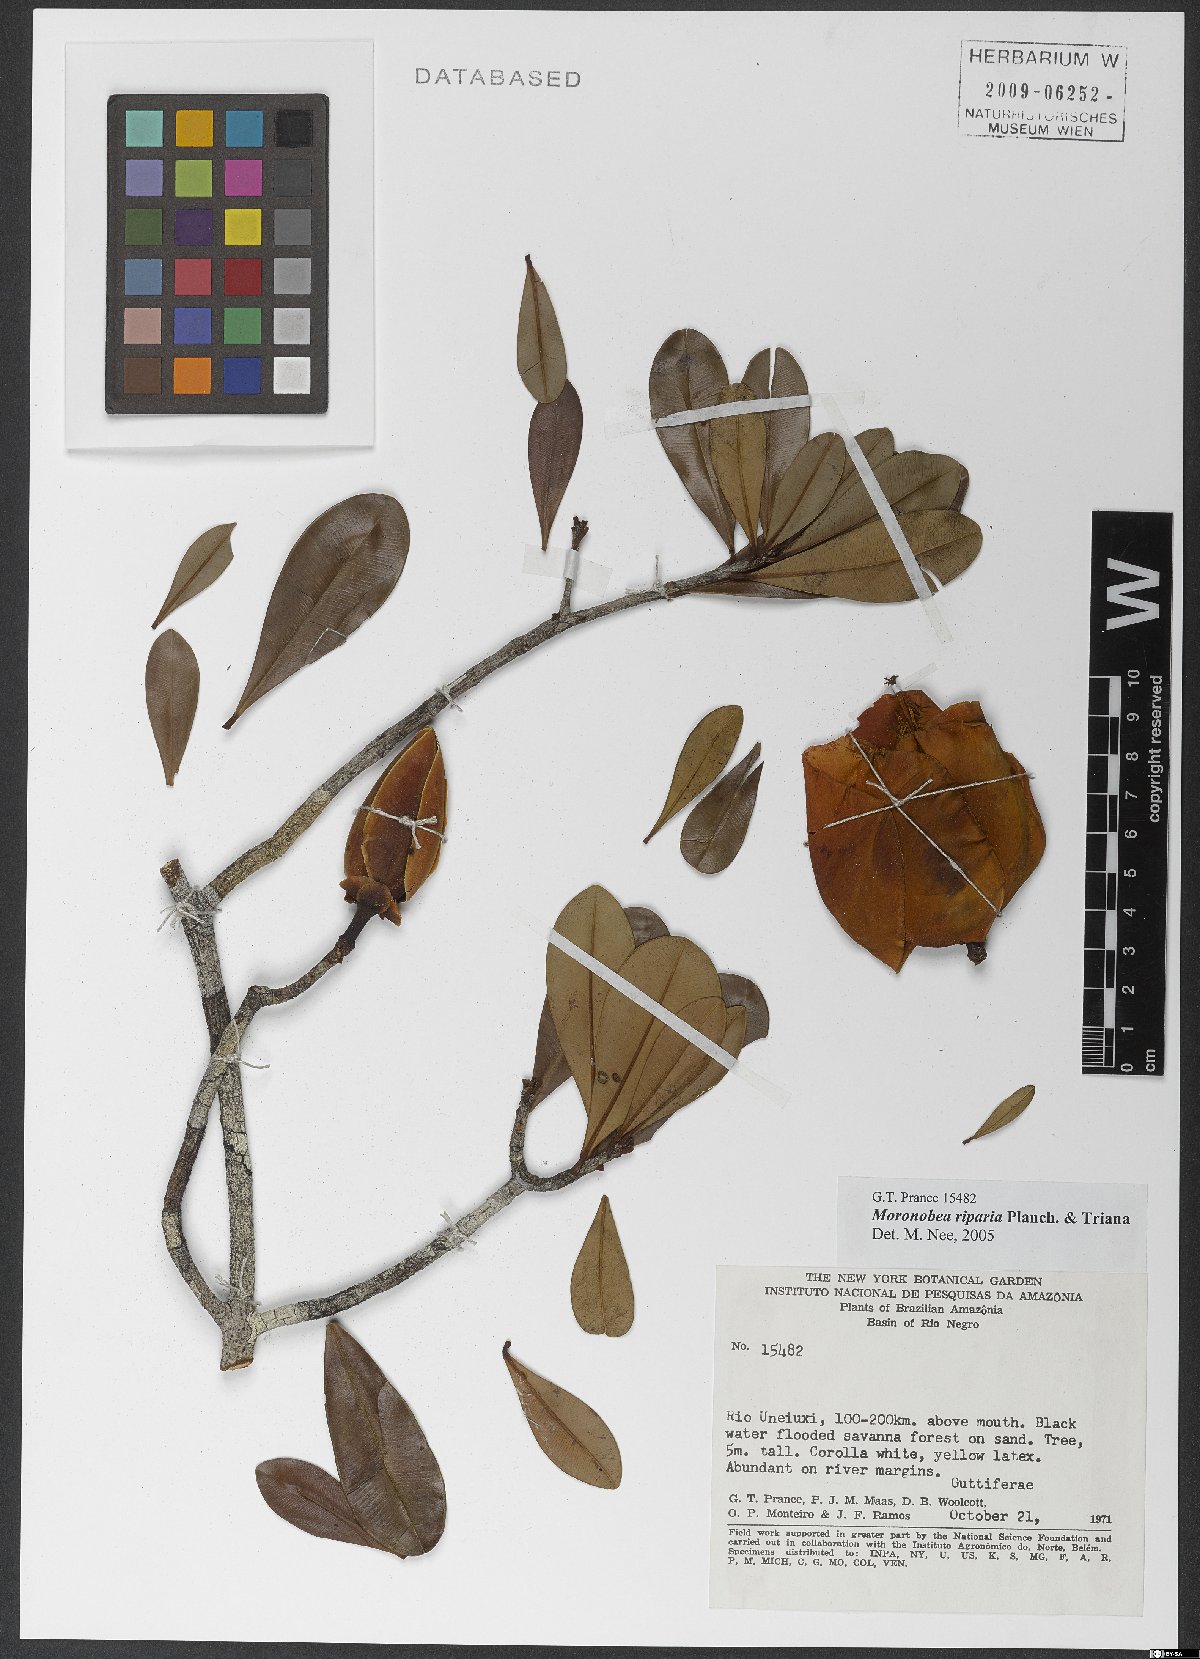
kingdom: Plantae
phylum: Tracheophyta
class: Magnoliopsida
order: Malpighiales
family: Clusiaceae
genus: Moronobea
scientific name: Moronobea riparia
